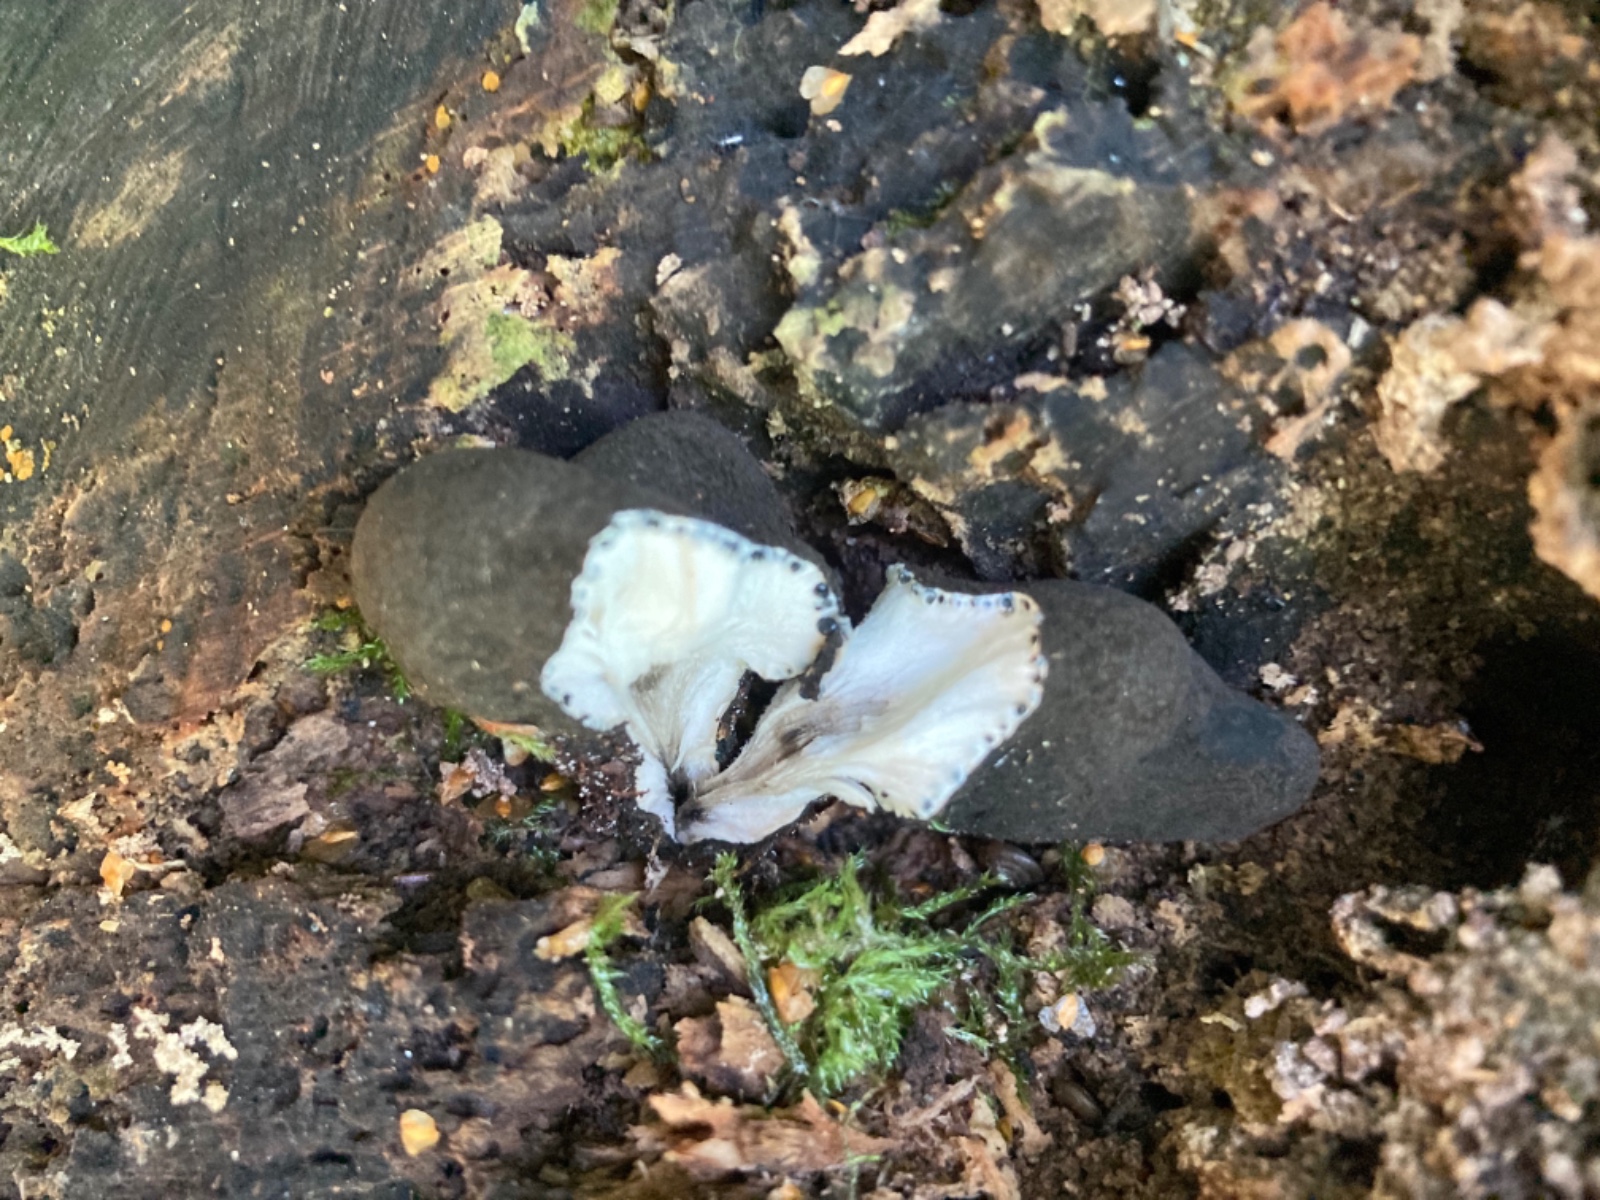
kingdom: Fungi
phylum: Ascomycota
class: Sordariomycetes
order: Xylariales
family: Xylariaceae
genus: Xylaria
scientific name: Xylaria polymorpha
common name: kølle-stødsvamp
